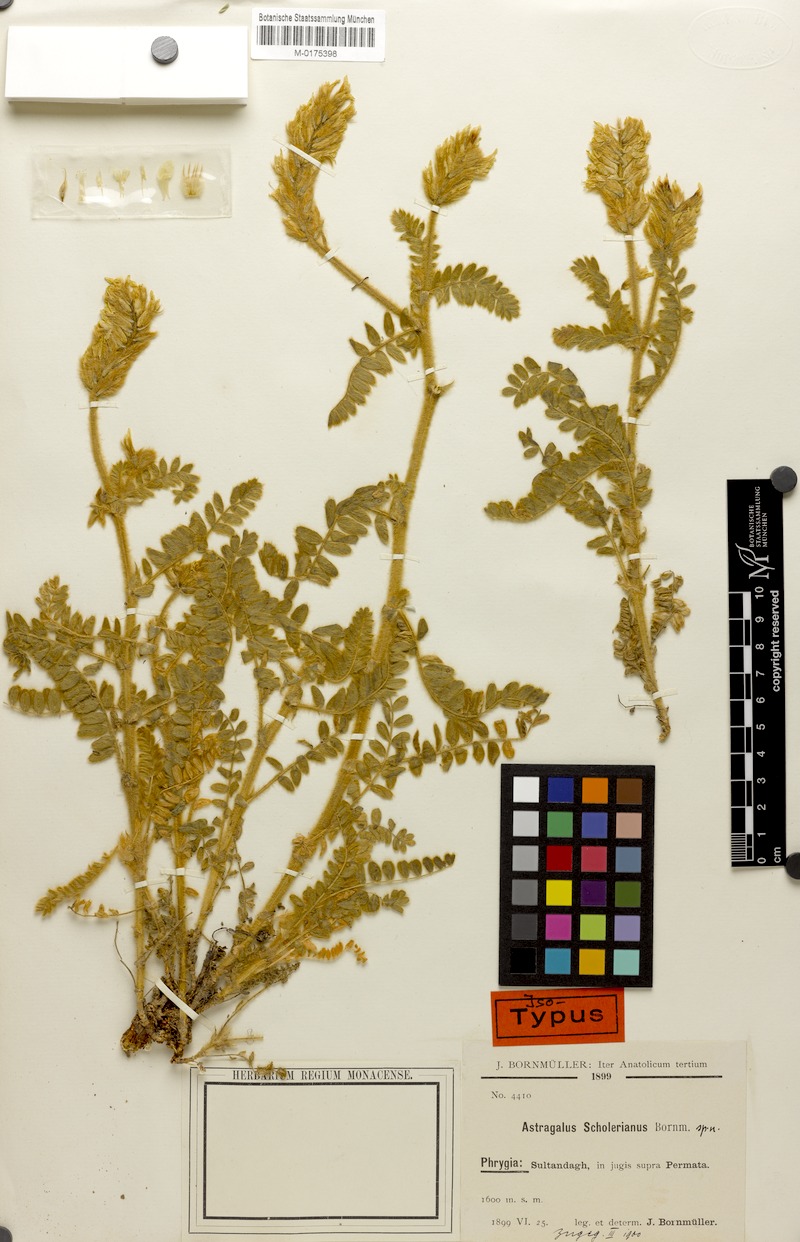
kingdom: Plantae
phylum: Tracheophyta
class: Magnoliopsida
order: Fabales
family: Fabaceae
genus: Astragalus
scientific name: Astragalus scholerianus
